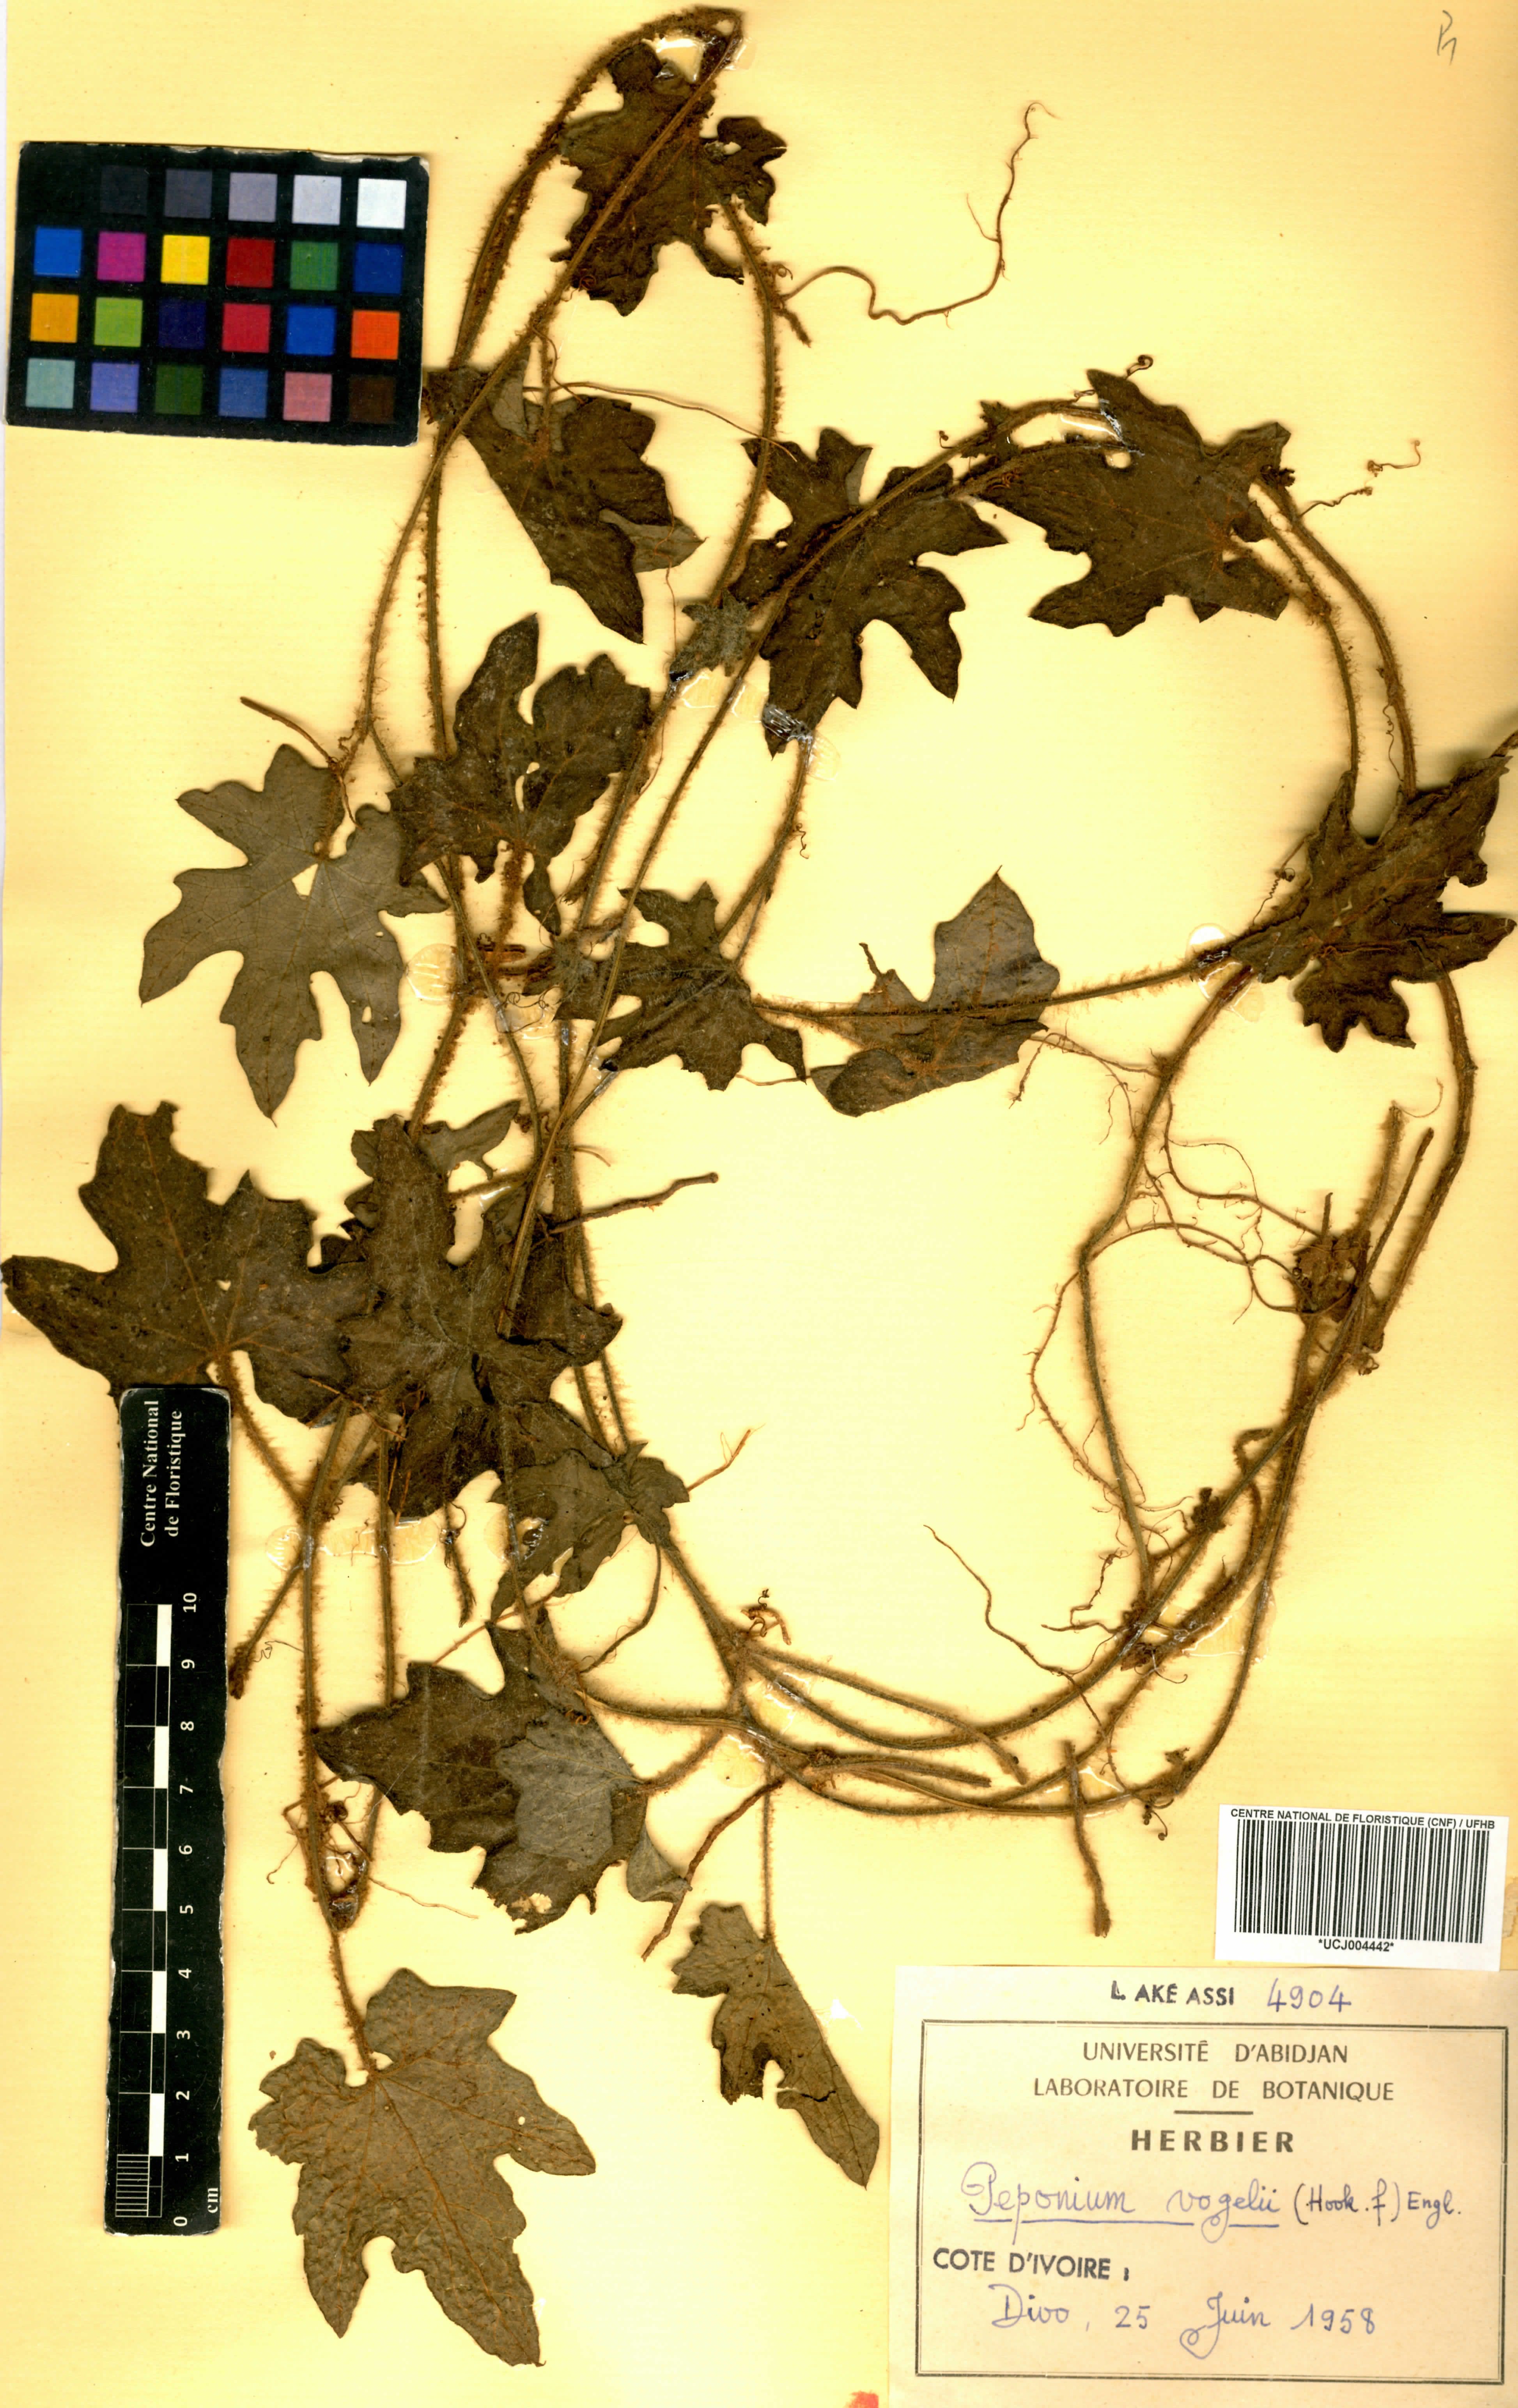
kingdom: Plantae
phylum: Tracheophyta
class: Magnoliopsida
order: Cucurbitales
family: Cucurbitaceae
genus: Peponium
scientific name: Peponium vogelii
